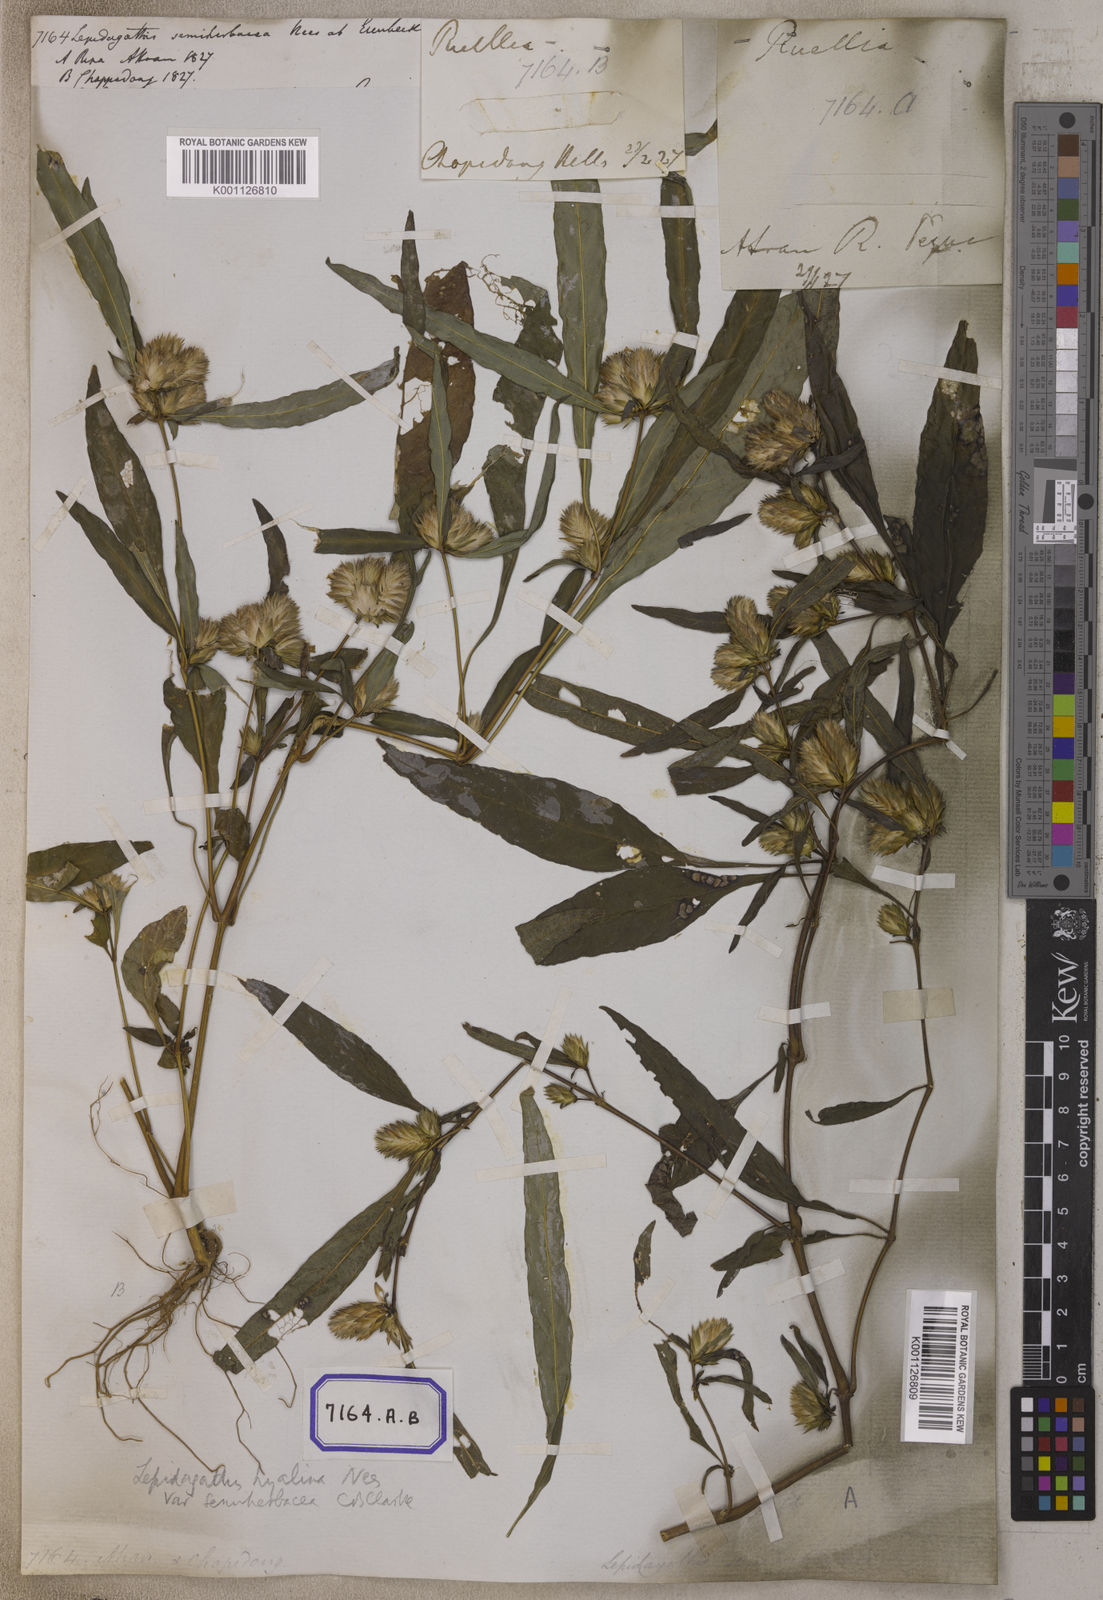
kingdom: Plantae
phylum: Tracheophyta
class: Magnoliopsida
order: Lamiales
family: Acanthaceae
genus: Lepidagathis
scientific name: Lepidagathis incurva
